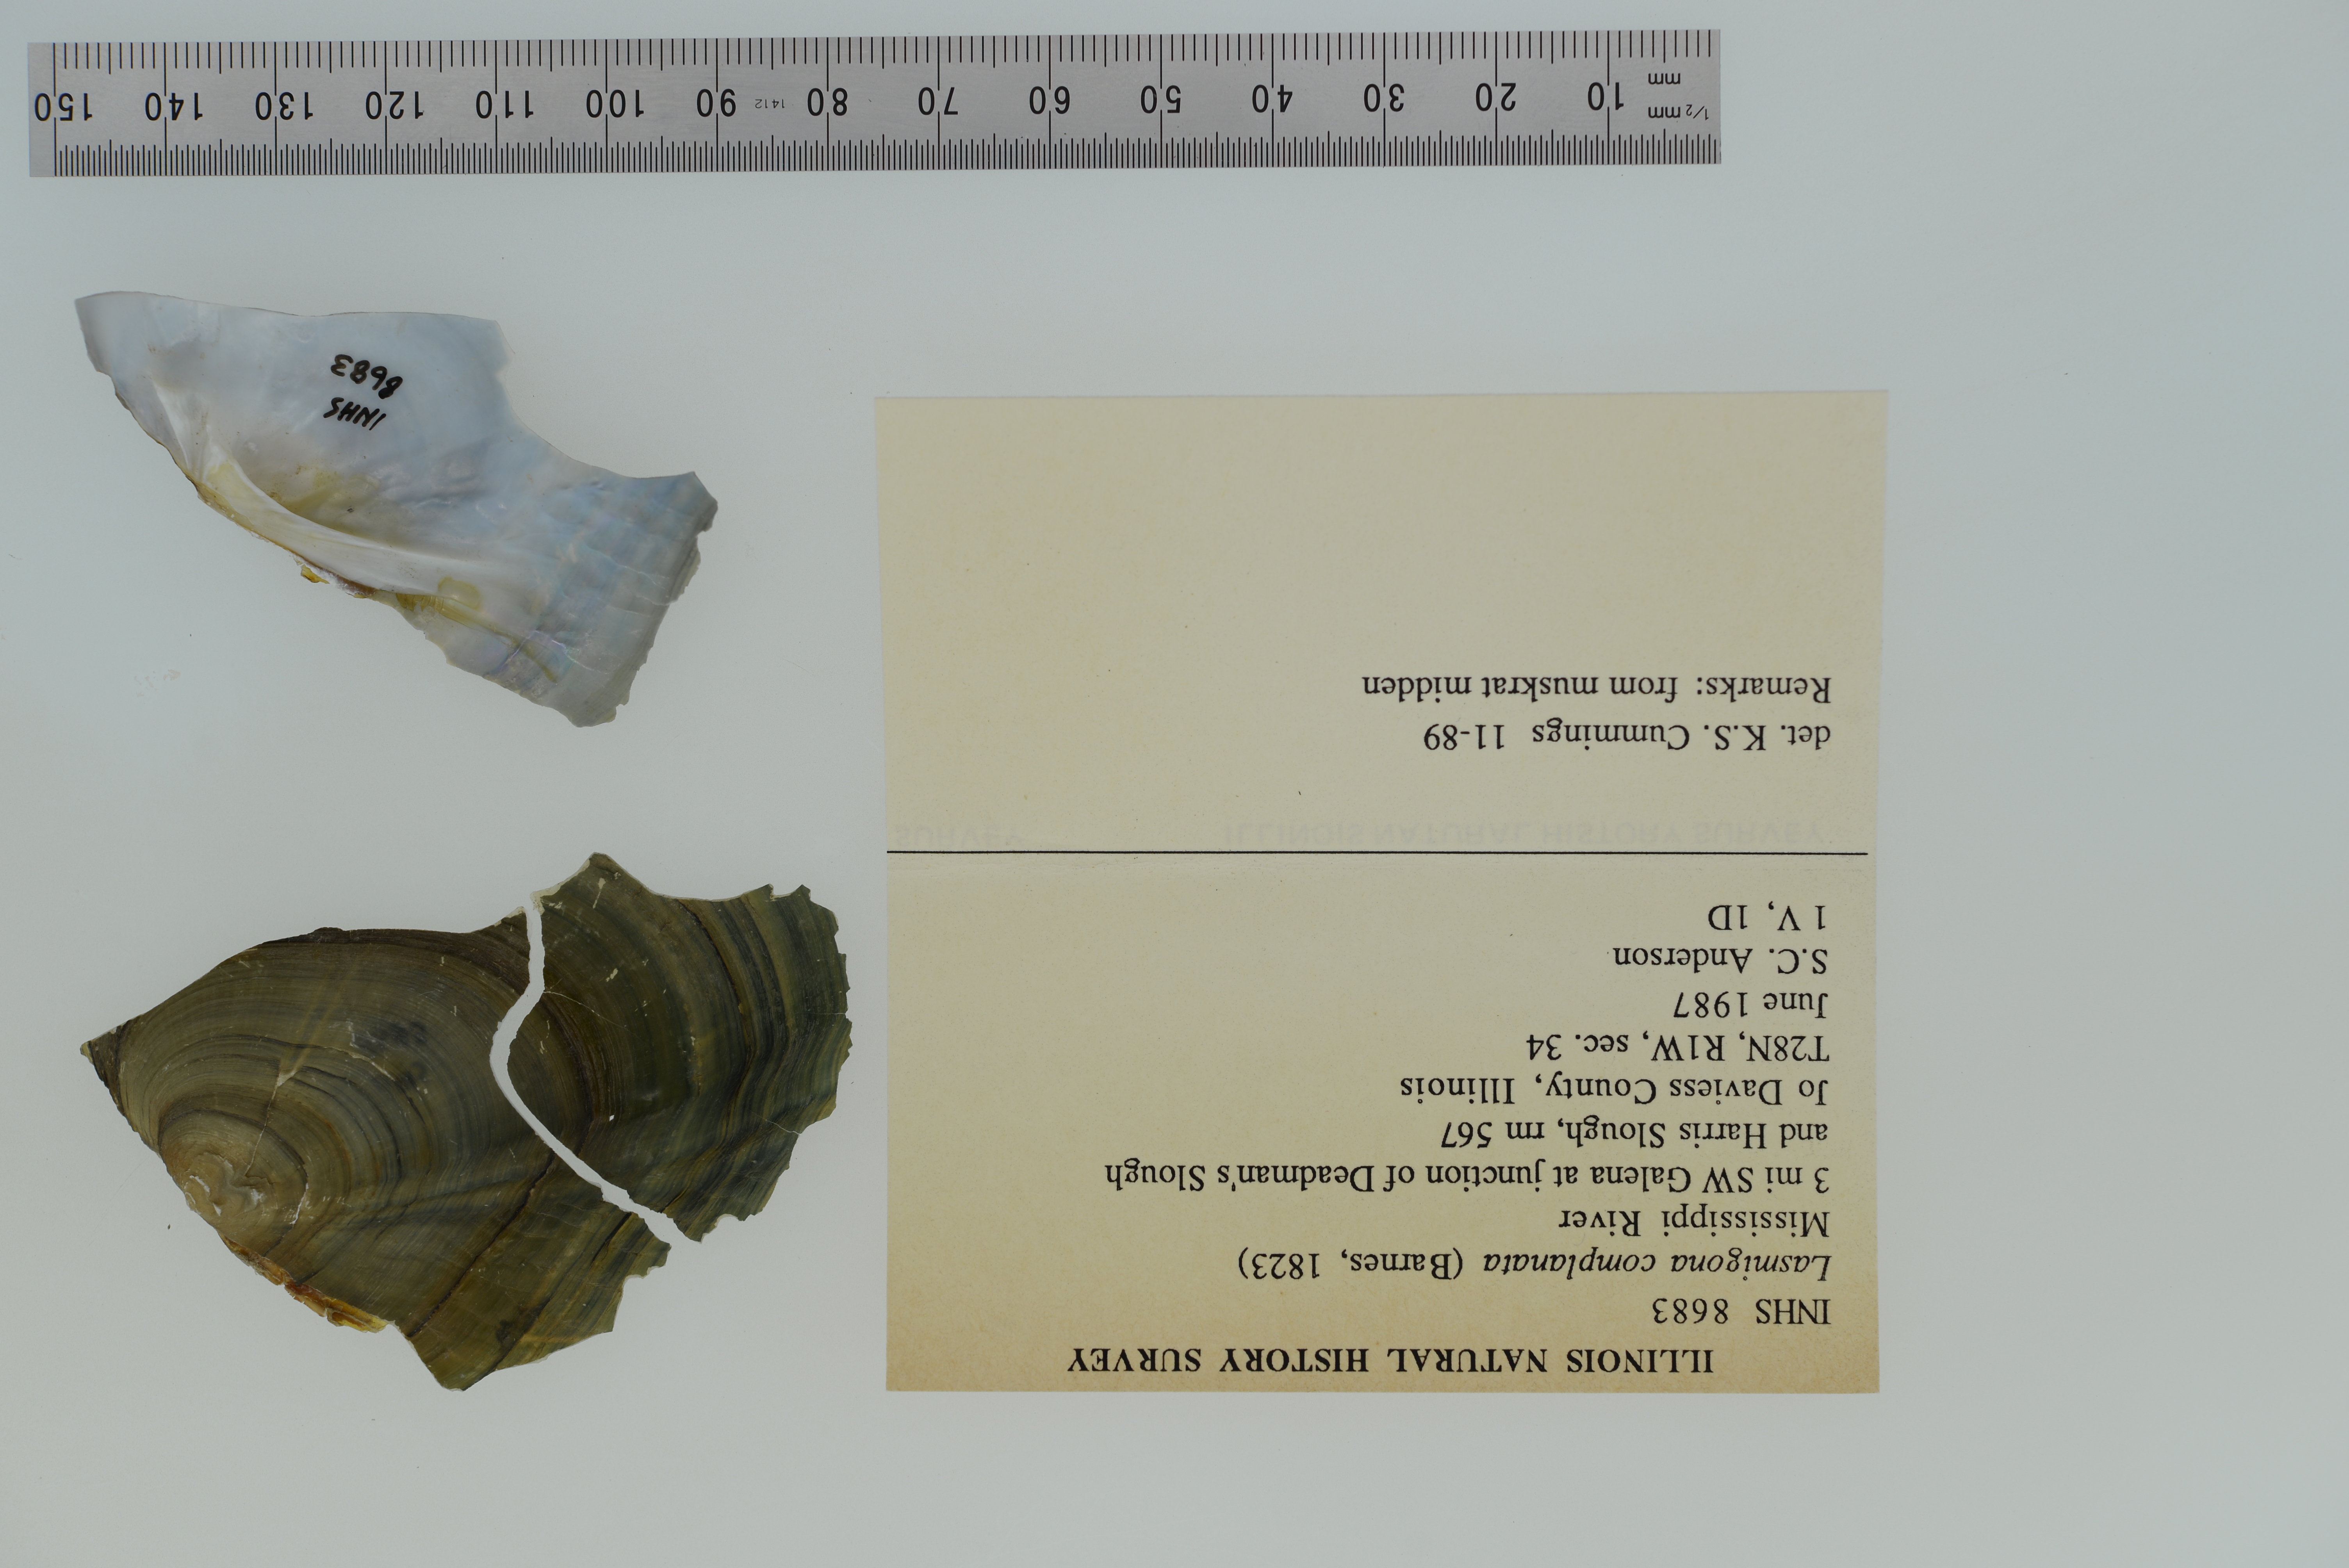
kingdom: Animalia
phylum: Mollusca
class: Bivalvia
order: Unionida
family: Unionidae
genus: Lasmigona
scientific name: Lasmigona complanata
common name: White heelsplitter
